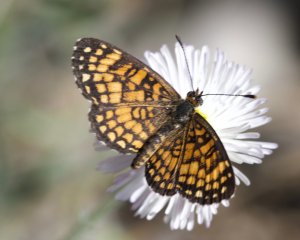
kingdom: Animalia
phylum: Arthropoda
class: Insecta
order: Lepidoptera
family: Nymphalidae
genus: Texola
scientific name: Texola elada
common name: Elada Checkerspot
